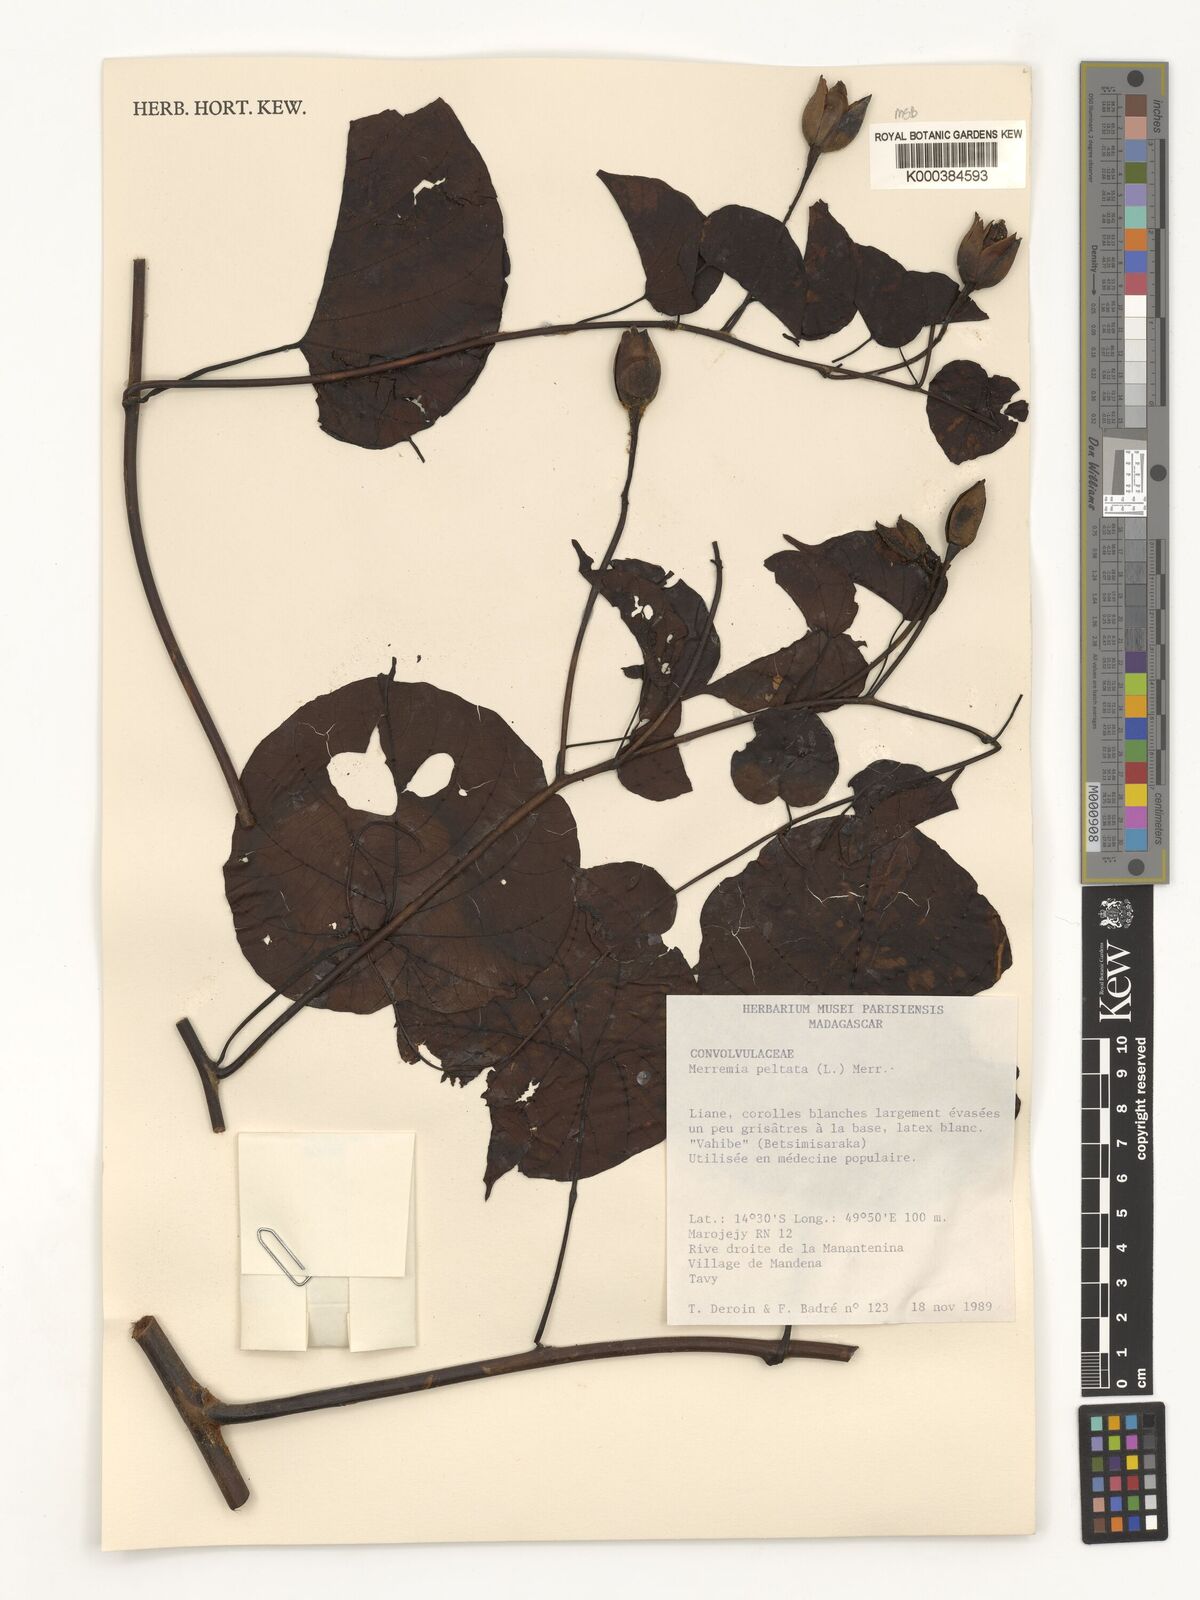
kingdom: Plantae
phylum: Tracheophyta
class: Magnoliopsida
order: Solanales
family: Convolvulaceae
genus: Decalobanthus
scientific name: Decalobanthus peltatus
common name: Merremia
